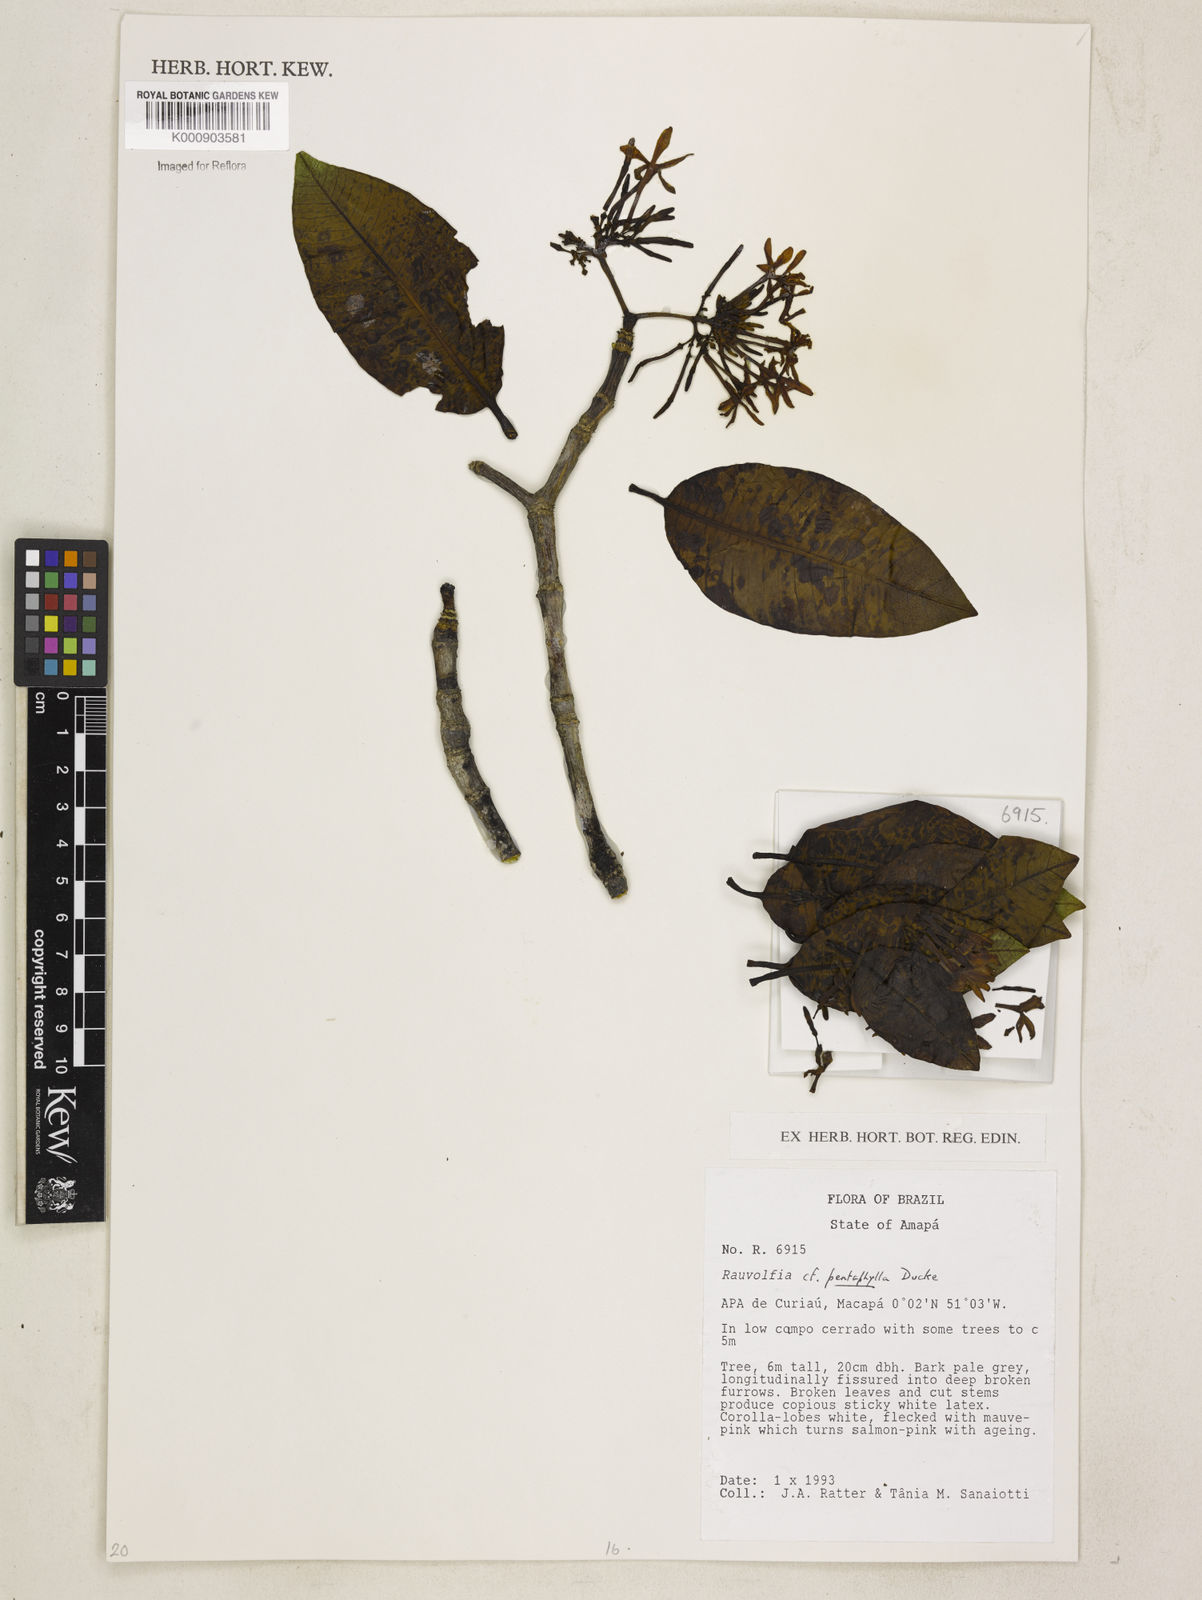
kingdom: Plantae
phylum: Tracheophyta
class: Magnoliopsida
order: Gentianales
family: Apocynaceae
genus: Rauvolfia
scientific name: Rauvolfia pentaphylla
